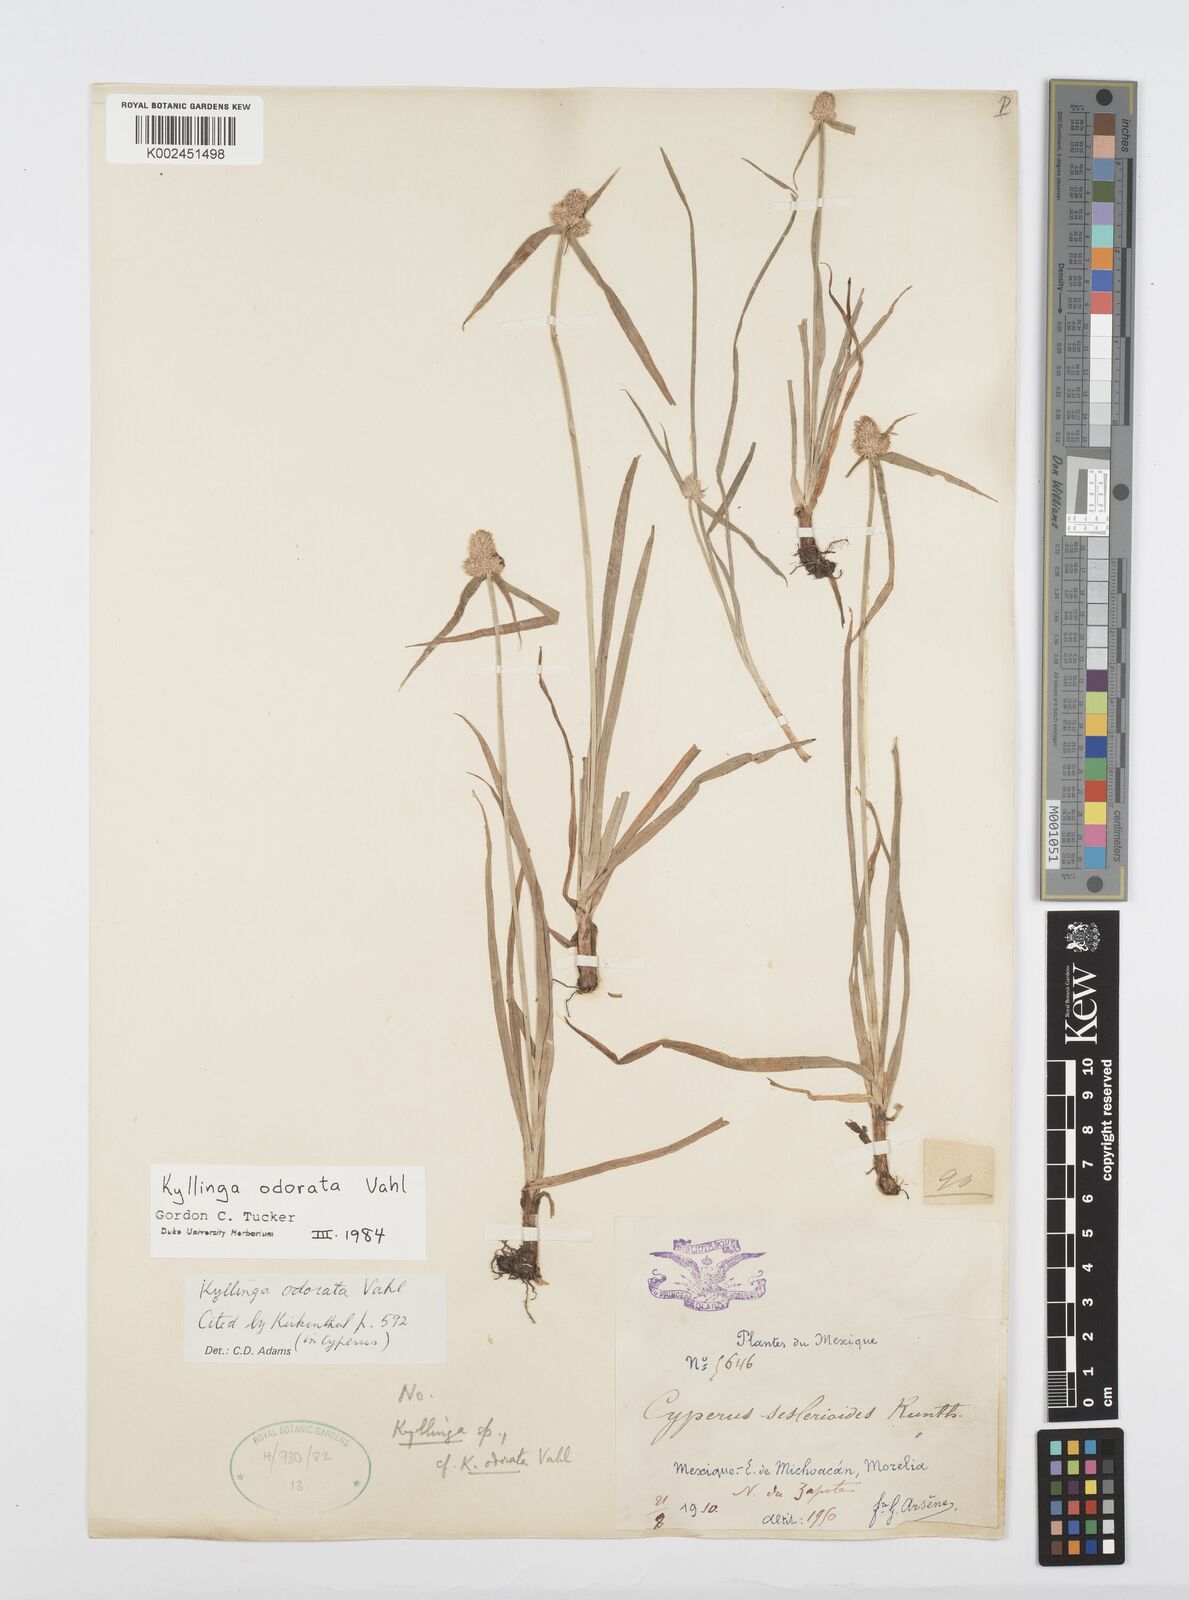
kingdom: Plantae
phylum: Tracheophyta
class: Liliopsida
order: Poales
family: Cyperaceae
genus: Cyperus
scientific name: Cyperus
